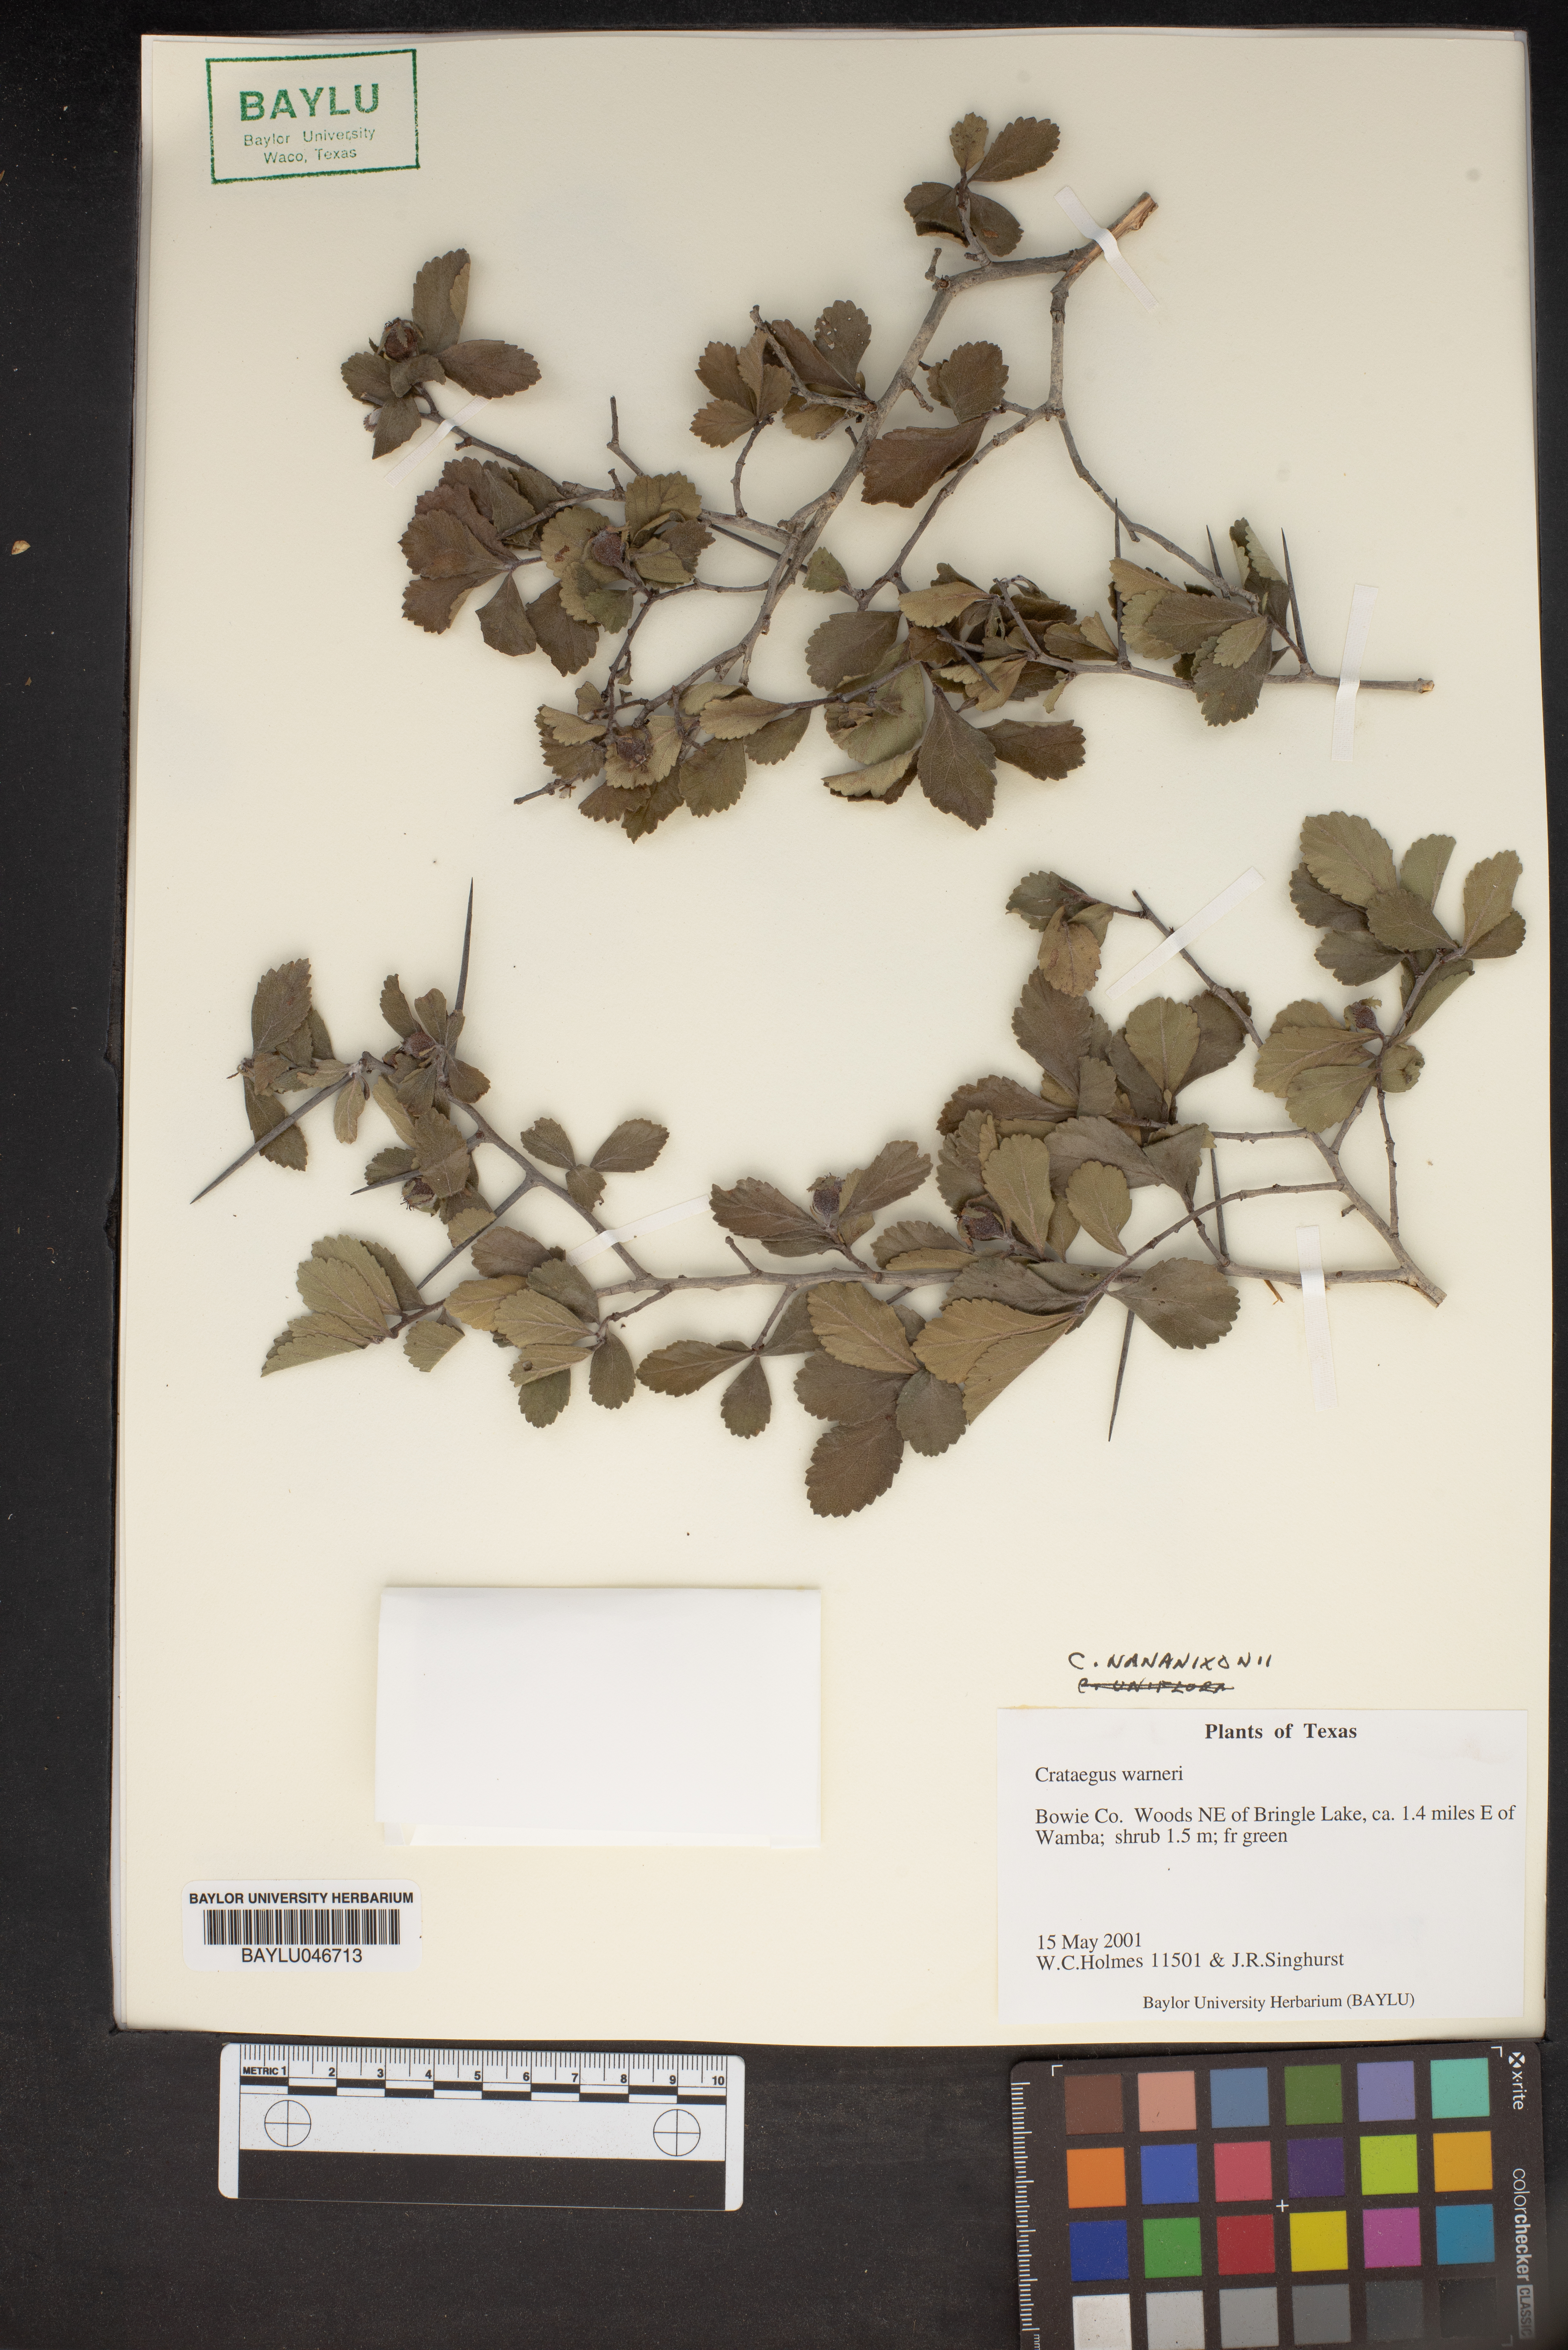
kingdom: Plantae
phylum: Tracheophyta
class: Magnoliopsida
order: Rosales
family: Rosaceae
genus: Crataegus
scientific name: Crataegus warneri
